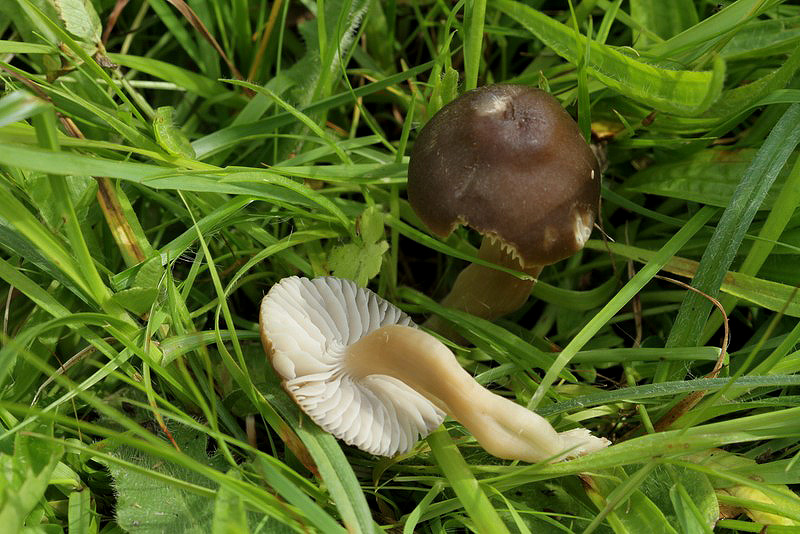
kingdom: Fungi
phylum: Basidiomycota
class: Agaricomycetes
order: Agaricales
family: Hygrophoraceae
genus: Neohygrocybe
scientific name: Neohygrocybe nitrata
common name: stinkende vokshat
